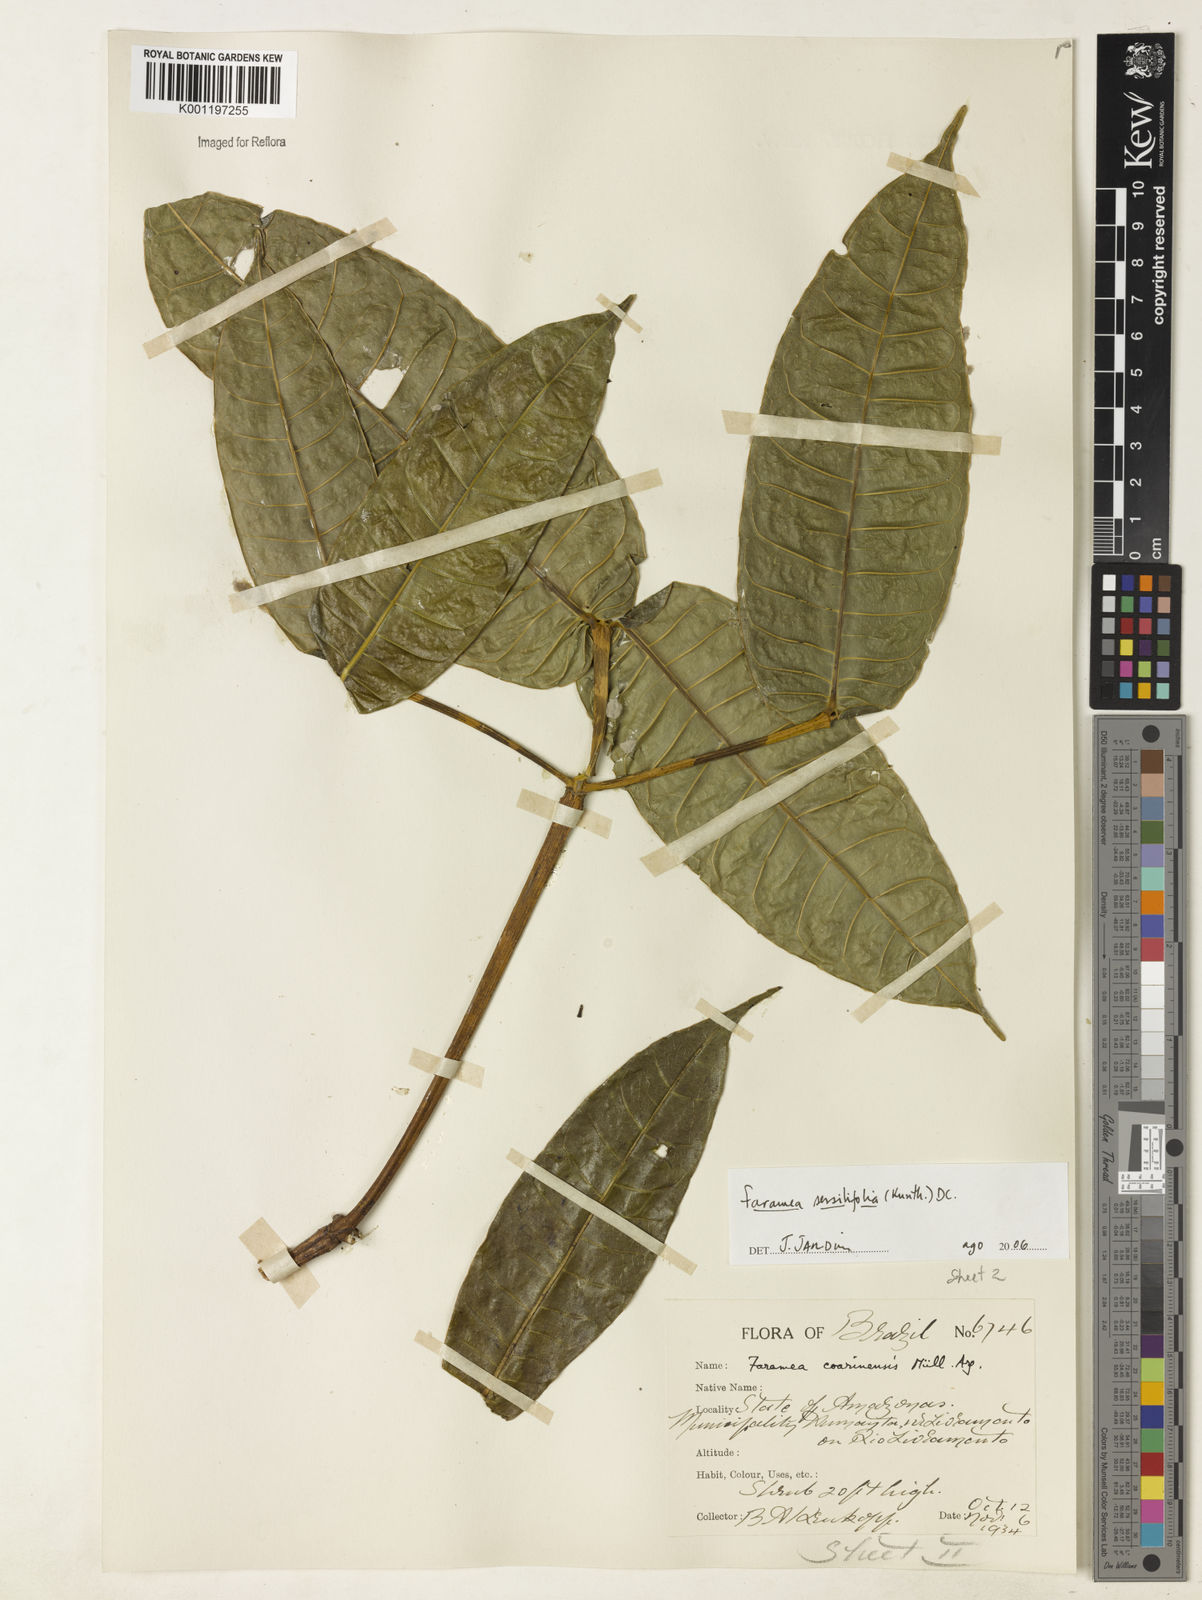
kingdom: Plantae
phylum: Tracheophyta
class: Magnoliopsida
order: Gentianales
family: Rubiaceae
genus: Faramea
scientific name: Faramea sessilifolia
